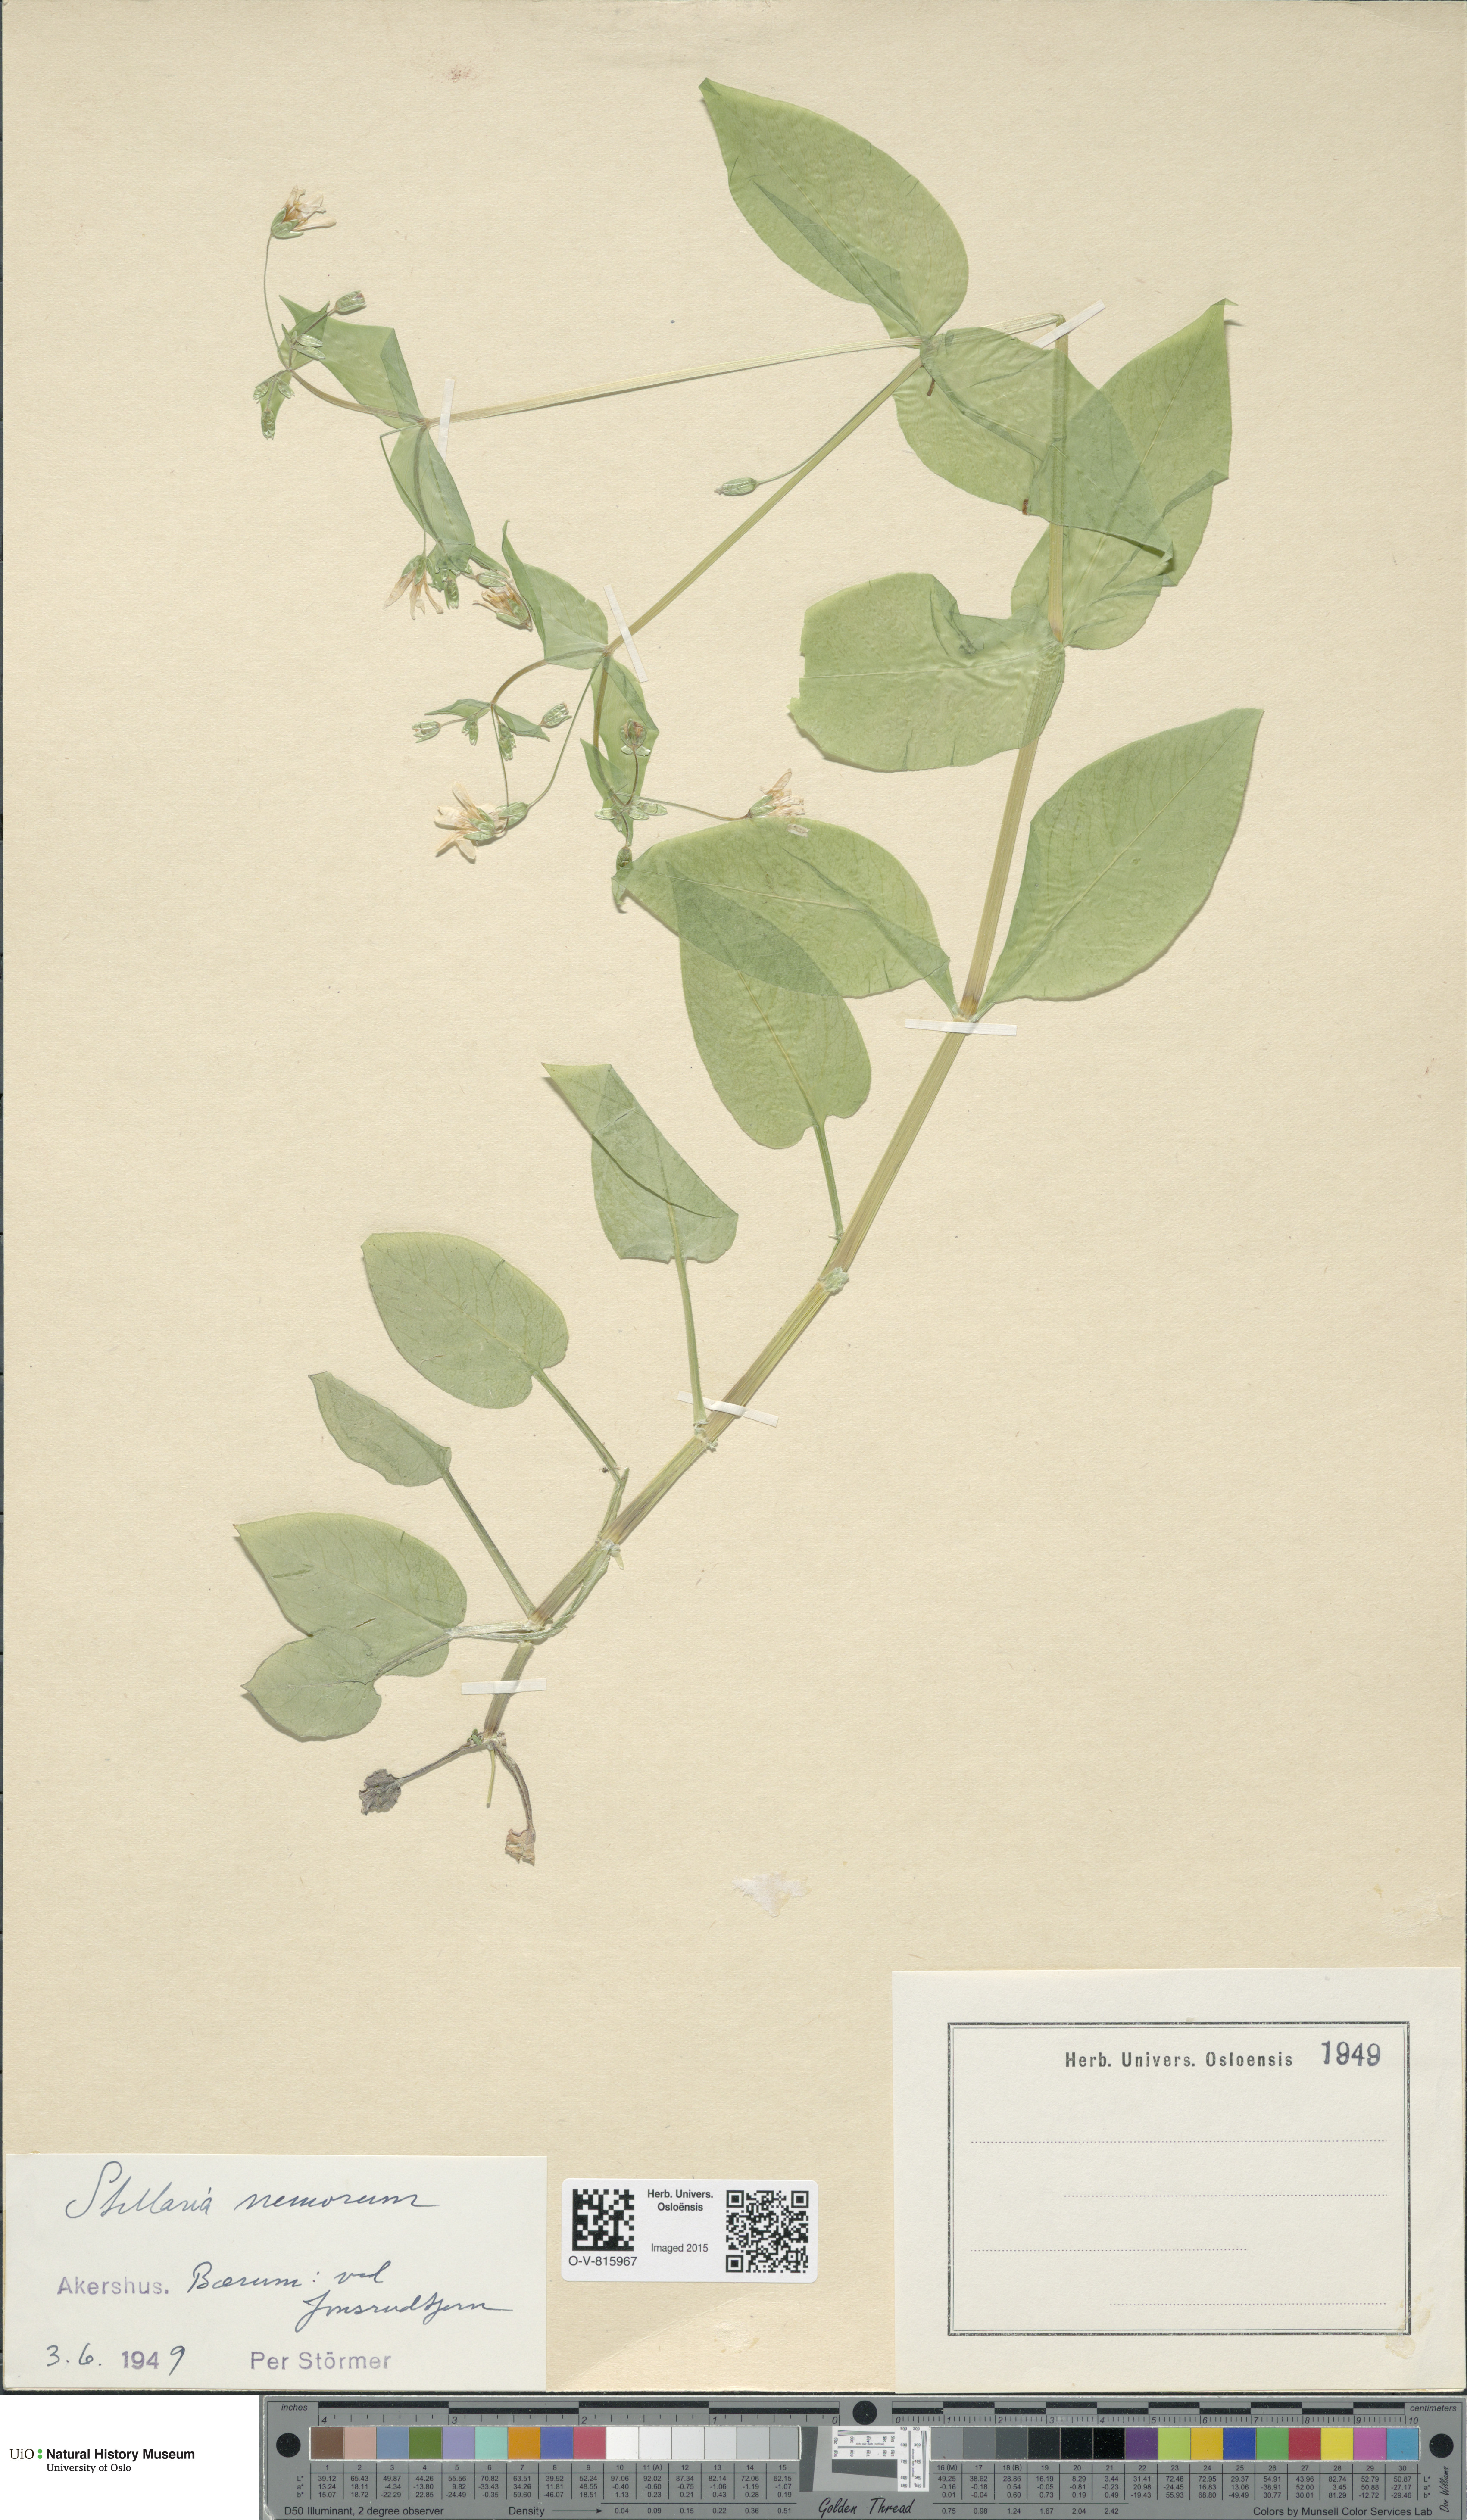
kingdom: Plantae
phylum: Tracheophyta
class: Magnoliopsida
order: Caryophyllales
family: Caryophyllaceae
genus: Stellaria
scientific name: Stellaria nemorum
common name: Wood stitchwort
